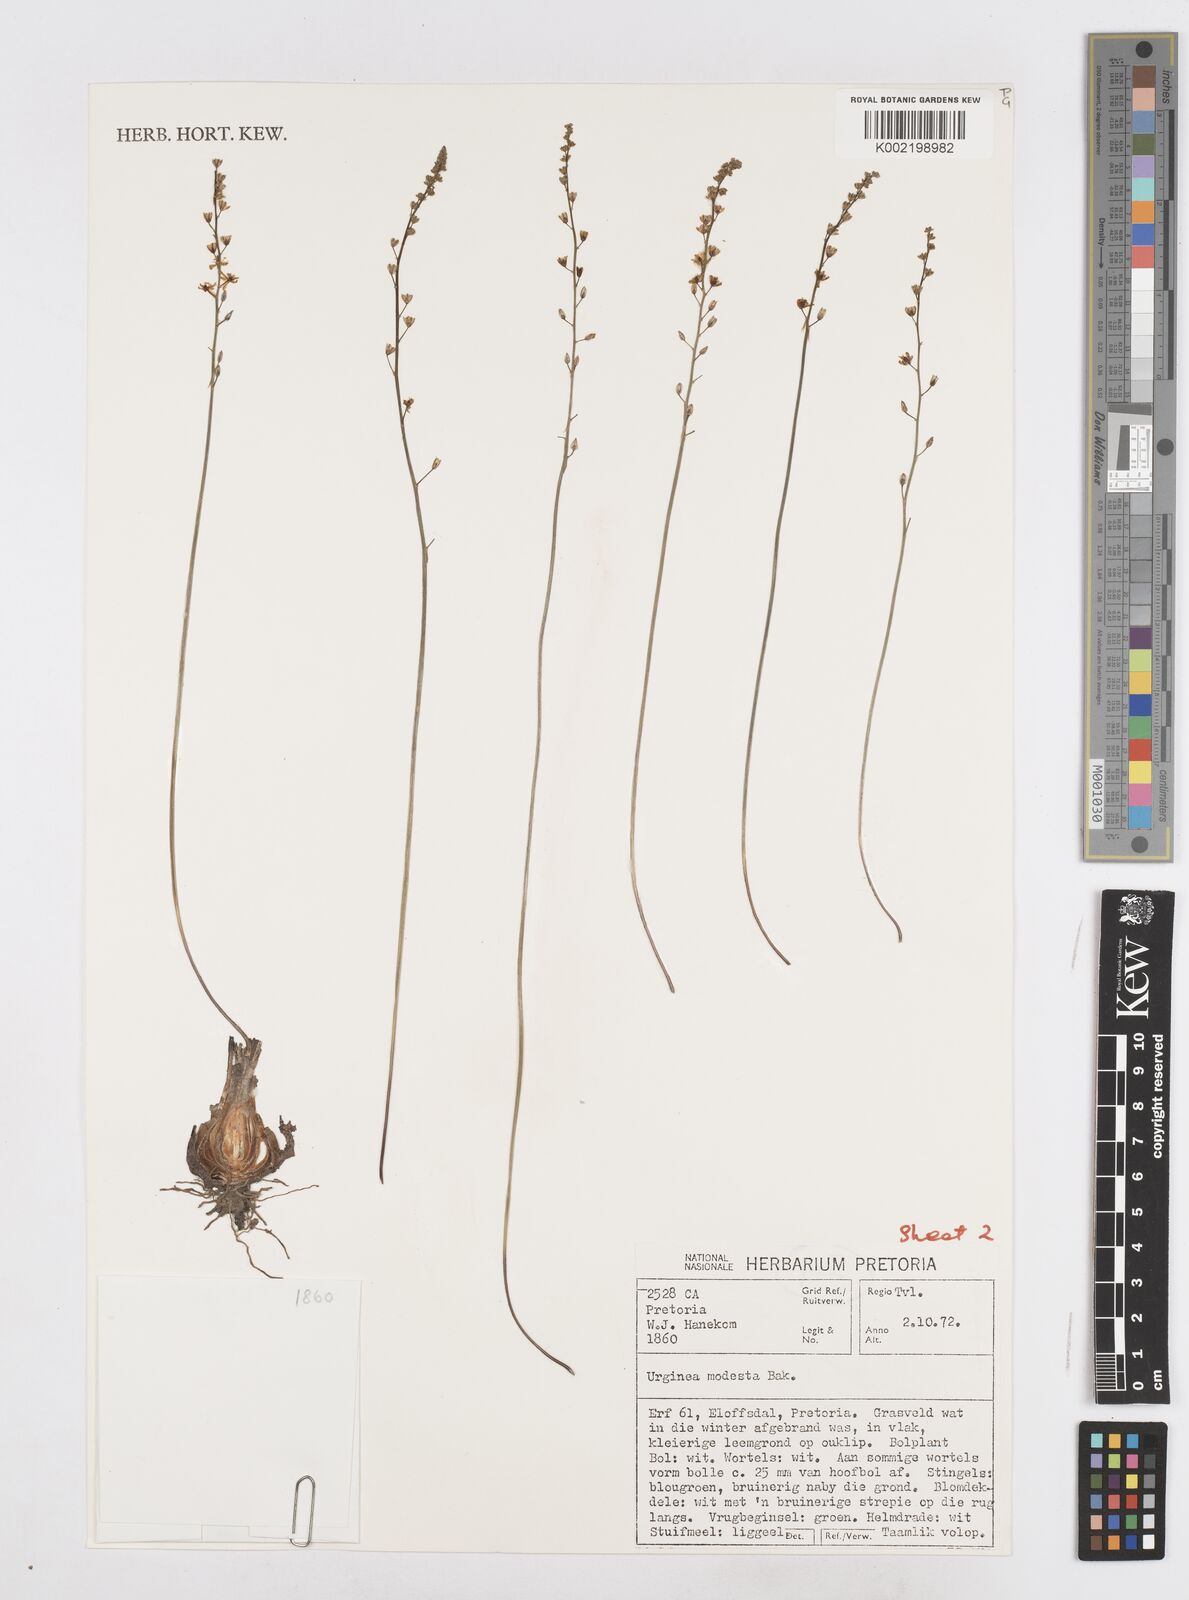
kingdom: Plantae
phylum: Tracheophyta
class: Liliopsida
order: Asparagales
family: Asparagaceae
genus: Drimia
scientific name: Drimia modesta
